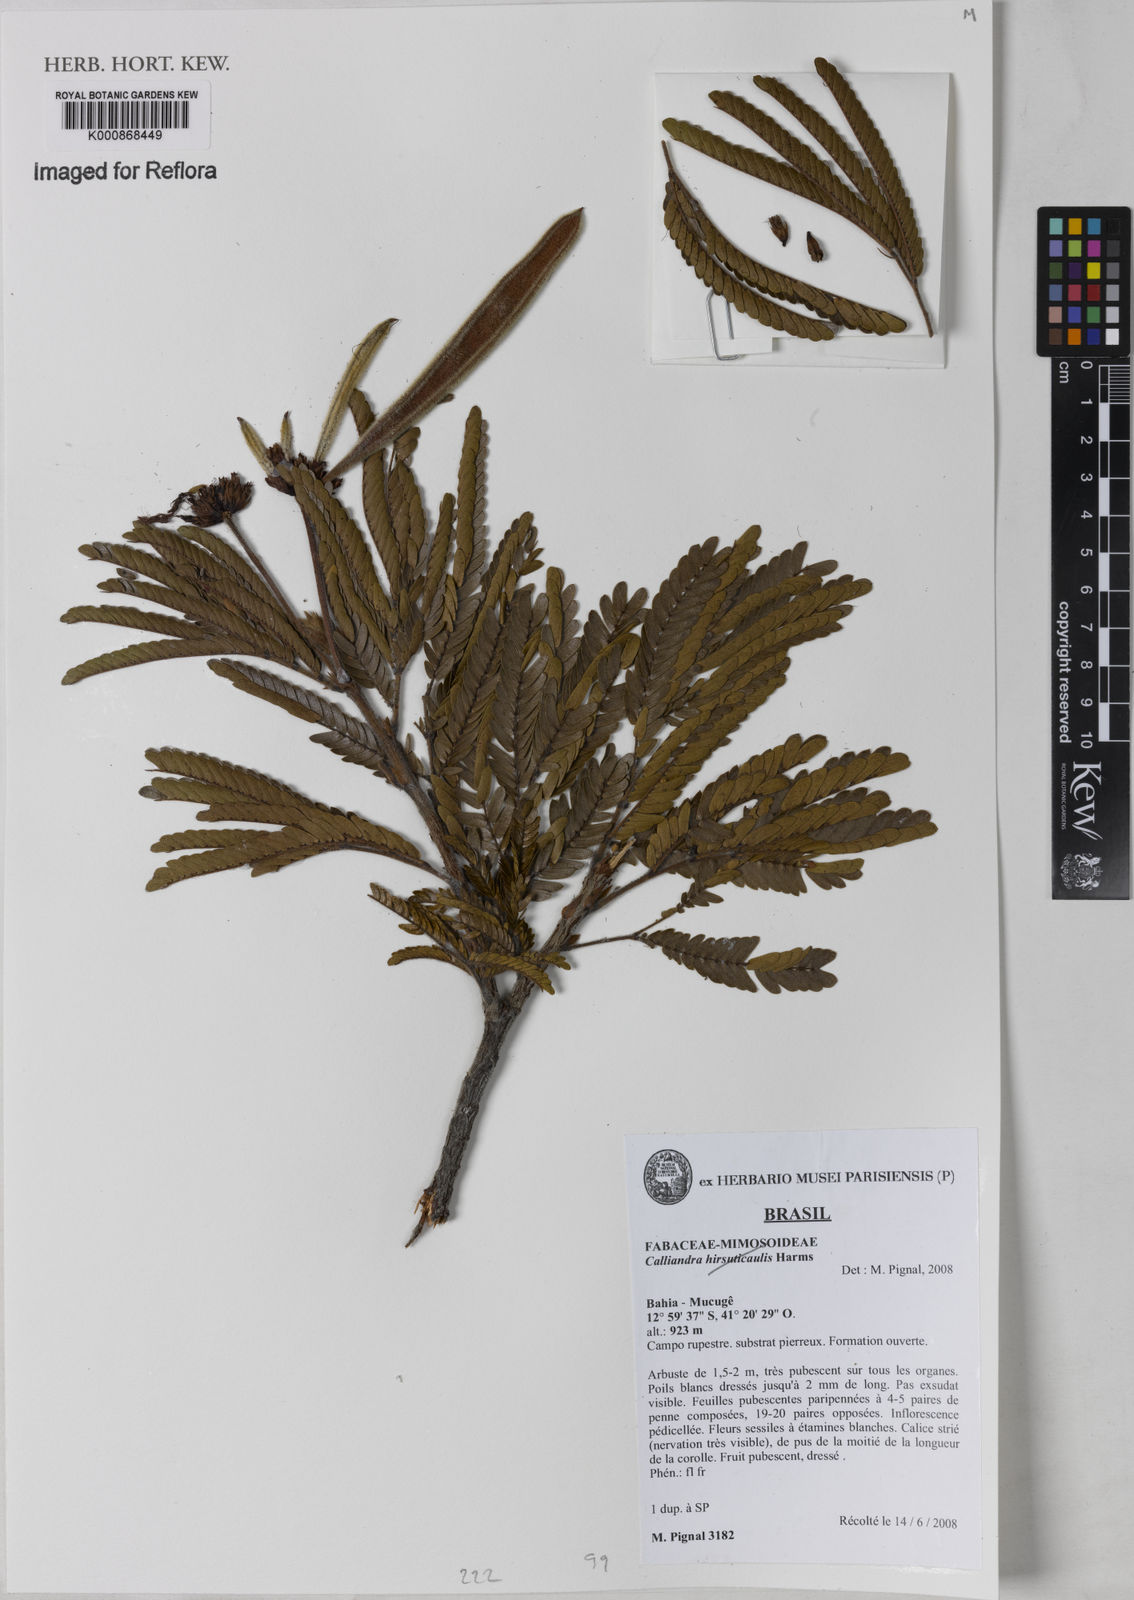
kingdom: Plantae
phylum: Tracheophyta
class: Magnoliopsida
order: Fabales
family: Fabaceae
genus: Calliandra
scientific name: Calliandra
